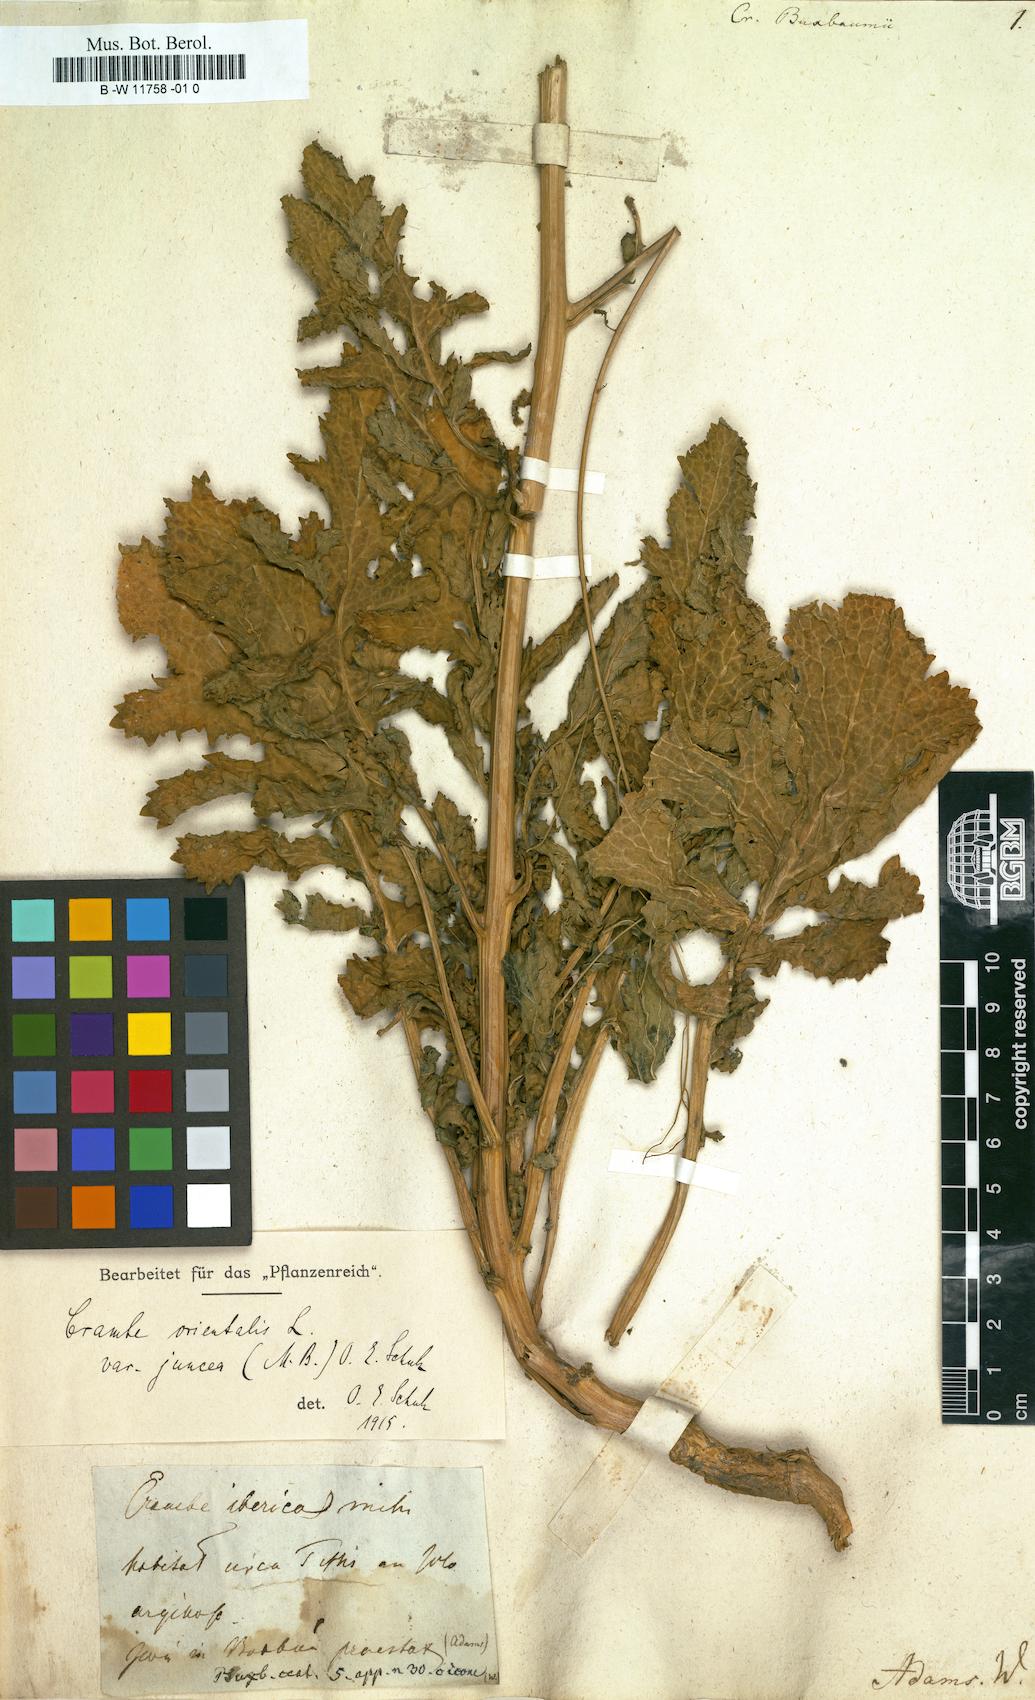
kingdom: Plantae
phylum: Tracheophyta
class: Magnoliopsida
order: Brassicales
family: Brassicaceae
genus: Crambe
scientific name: Crambe juncea
